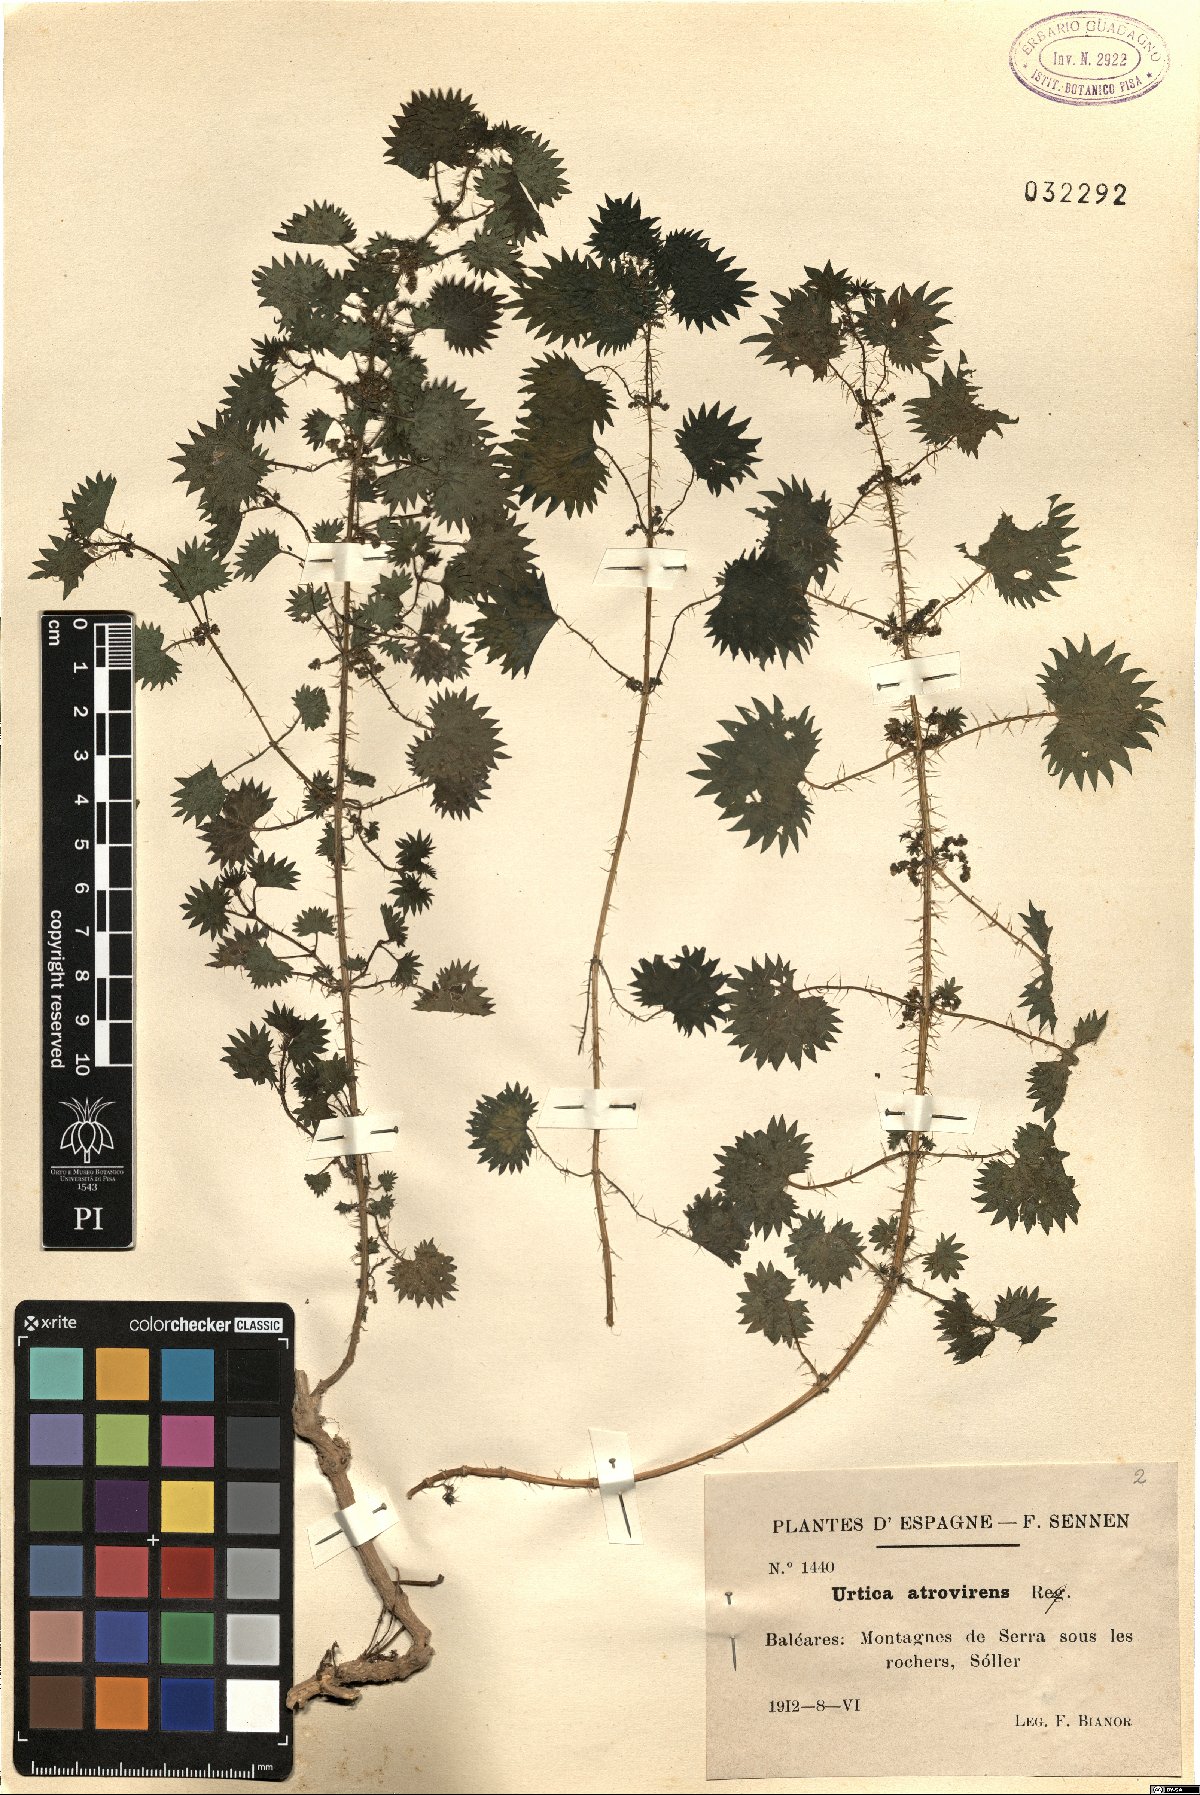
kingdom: Plantae
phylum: Tracheophyta
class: Magnoliopsida
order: Rosales
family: Urticaceae
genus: Urtica
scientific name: Urtica atrovirens
